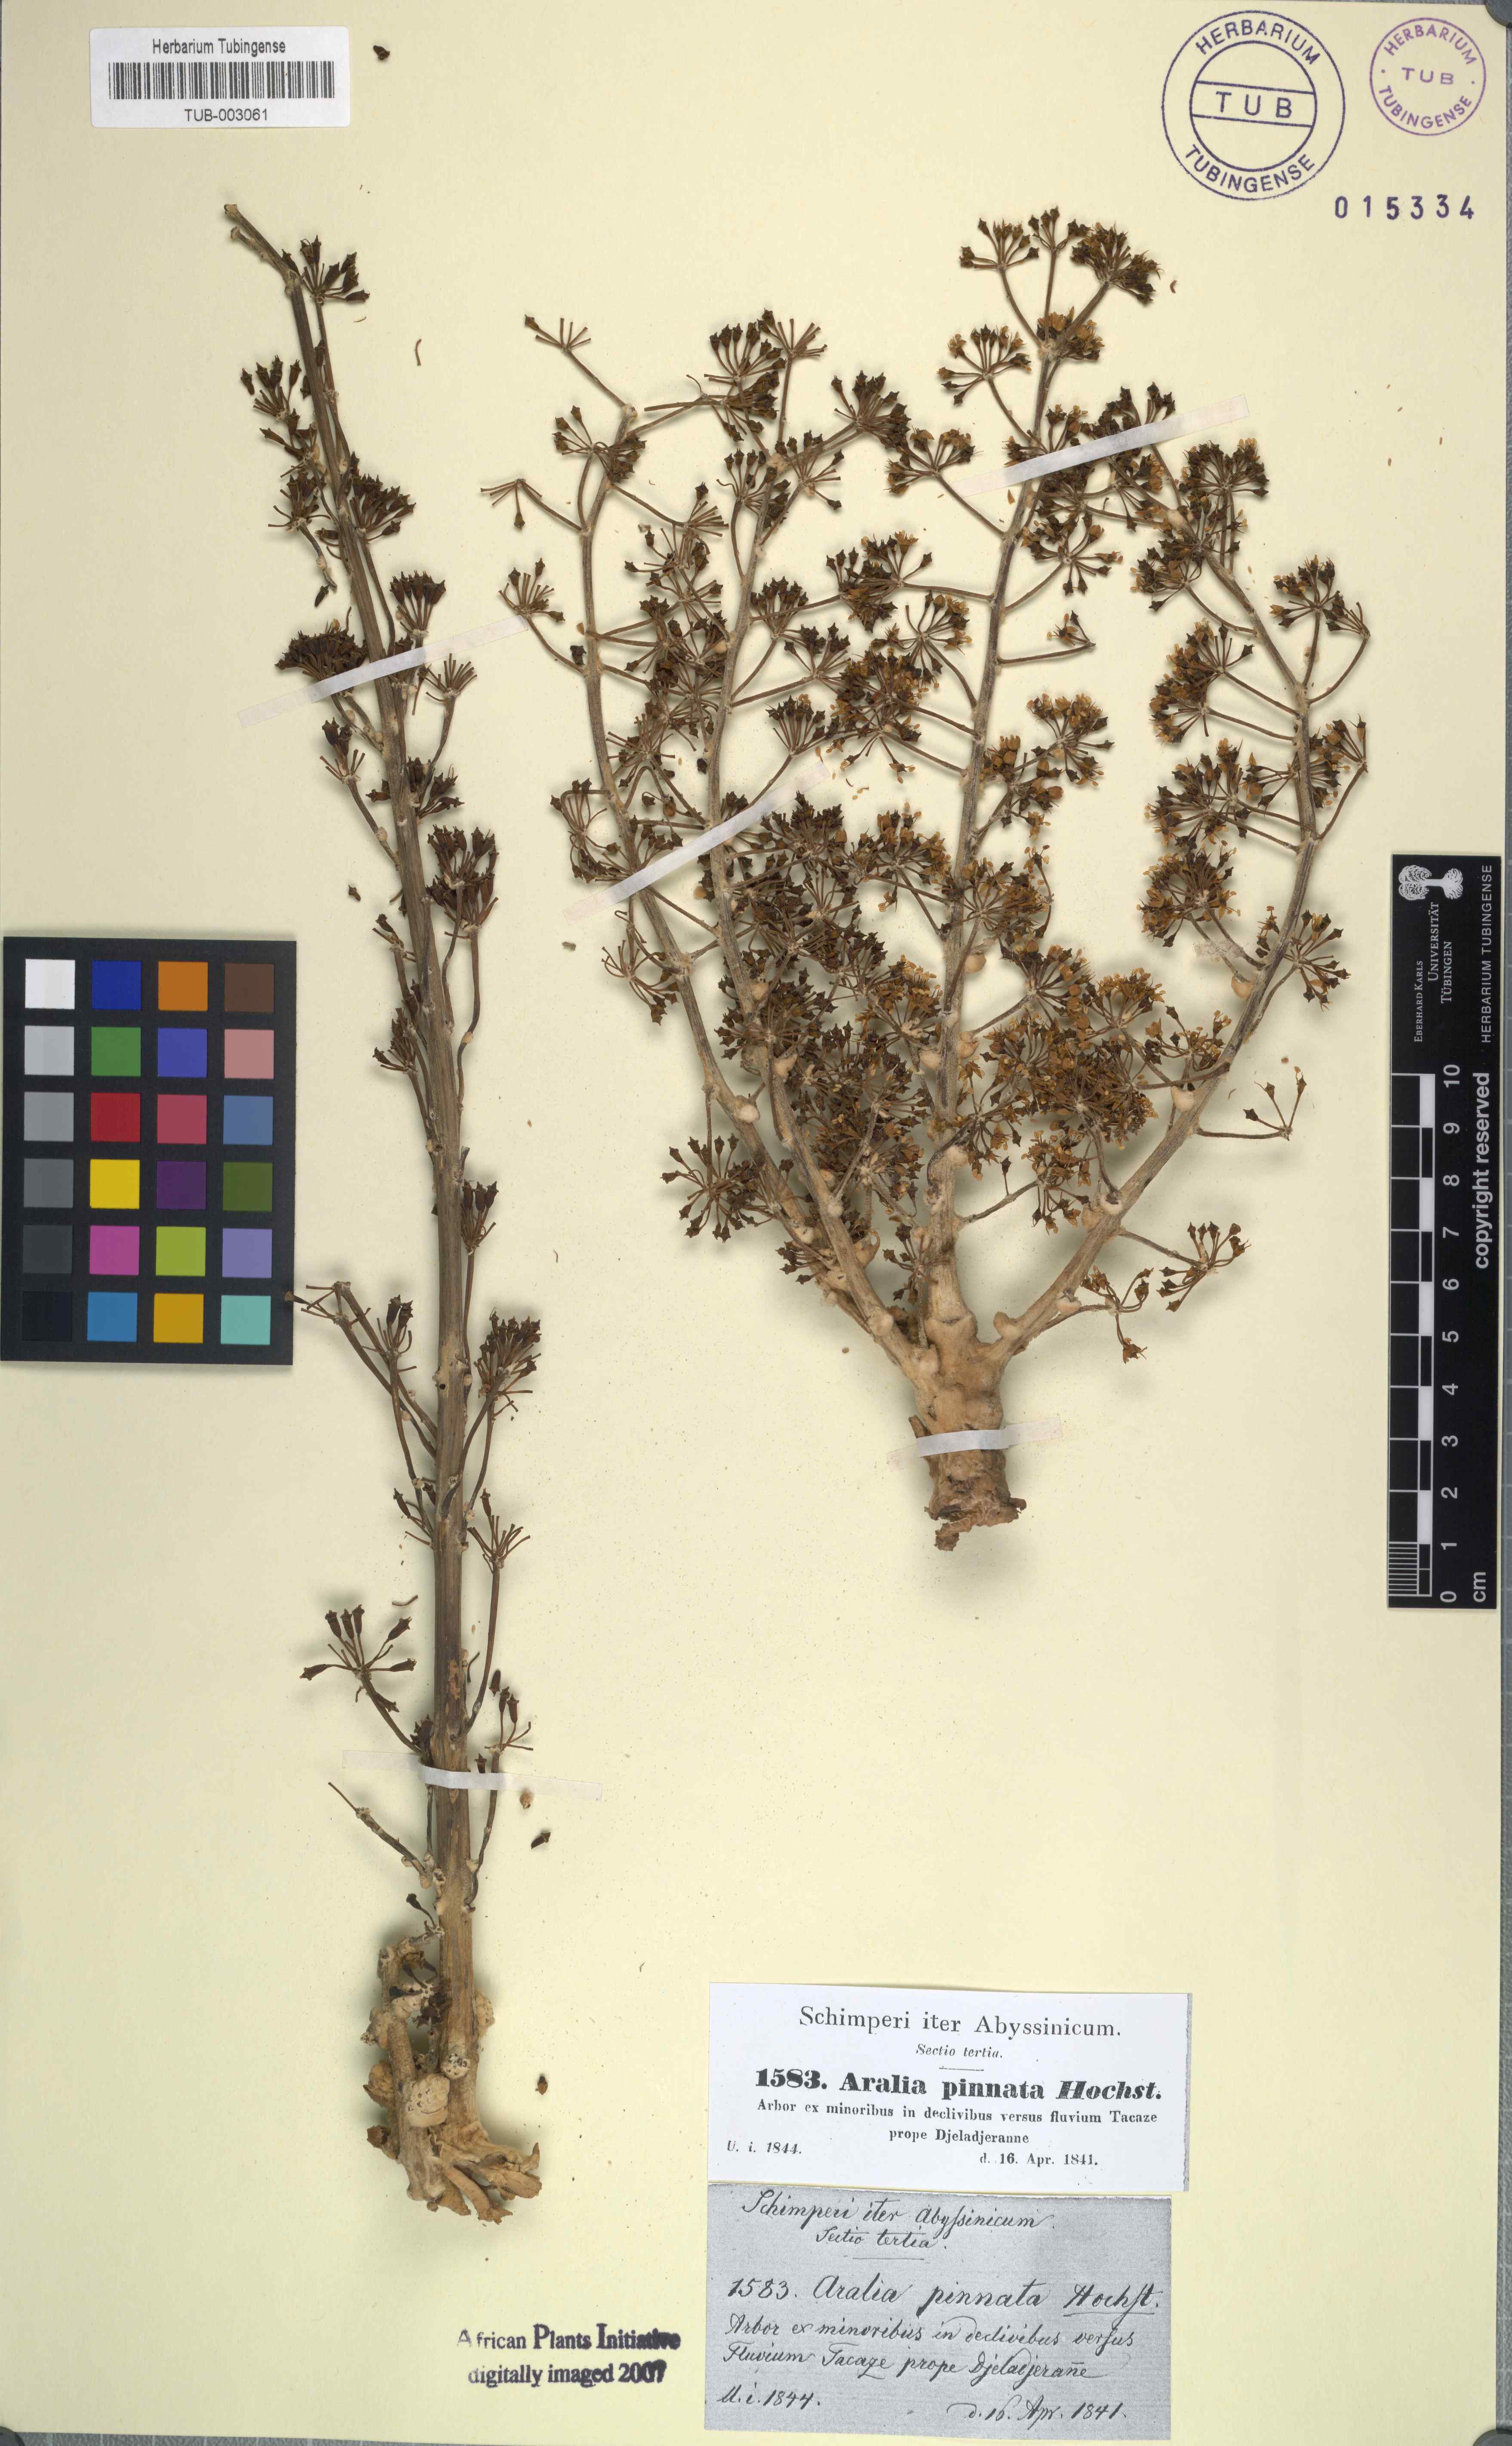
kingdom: Plantae
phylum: Tracheophyta
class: Magnoliopsida
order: Apiales
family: Araliaceae
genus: Polyscias
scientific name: Polyscias farinosa
